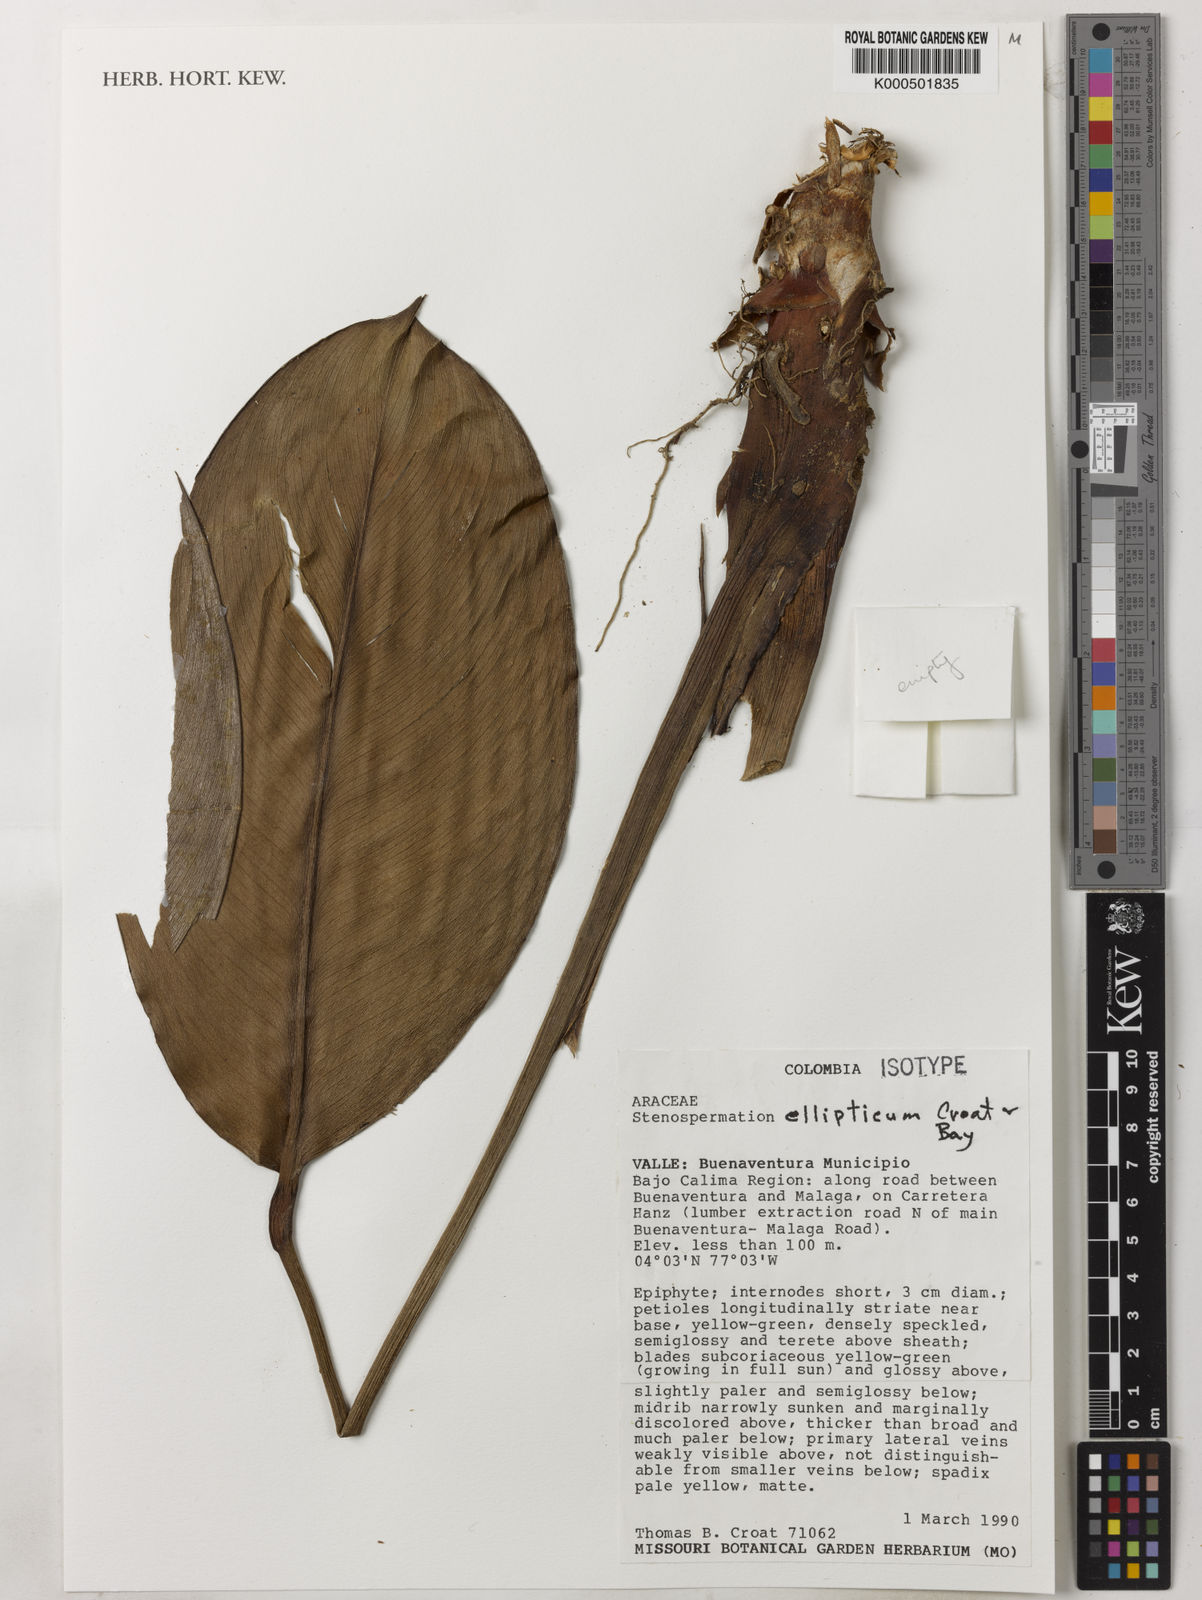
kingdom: Plantae
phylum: Tracheophyta
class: Liliopsida
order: Alismatales
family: Araceae
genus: Stenospermation
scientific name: Stenospermation ellipticum
